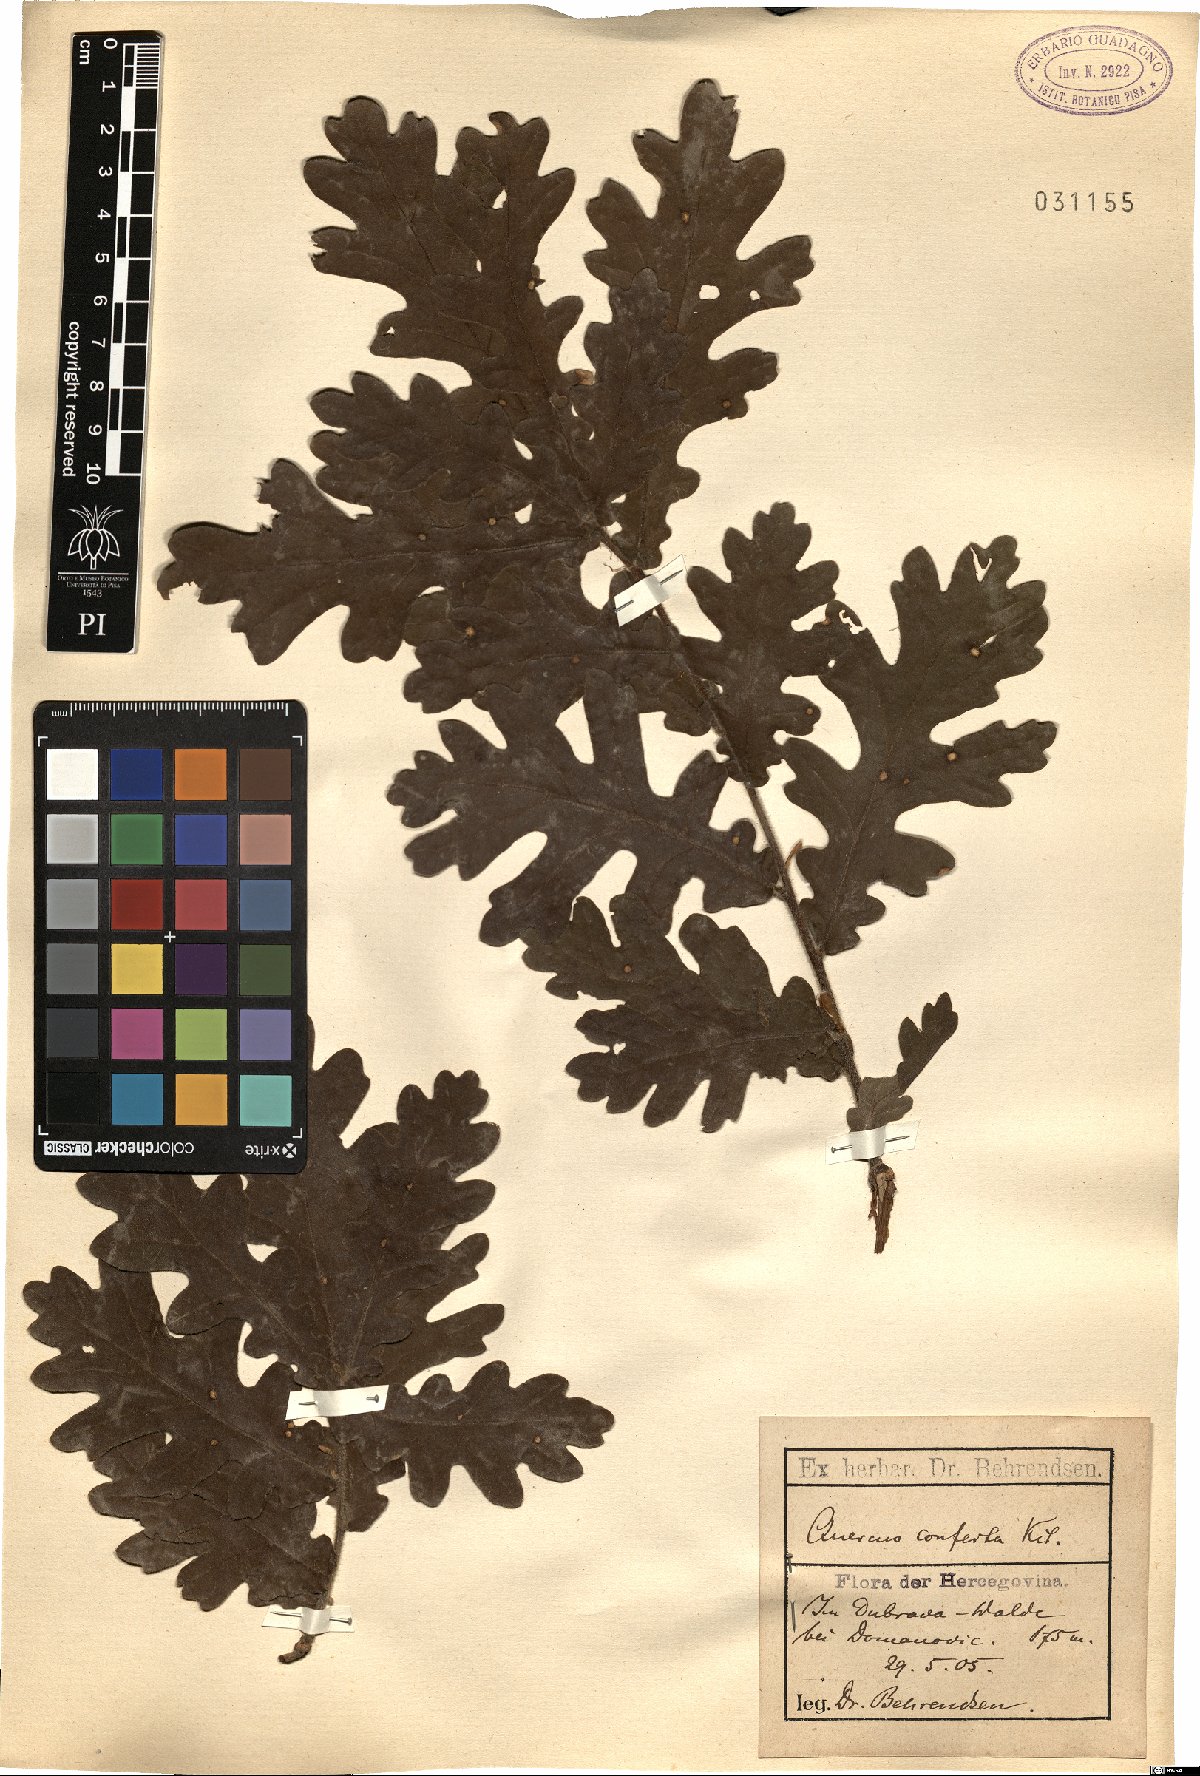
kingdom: Plantae
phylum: Tracheophyta
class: Magnoliopsida
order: Fagales
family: Fagaceae
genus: Quercus
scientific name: Quercus conferta
